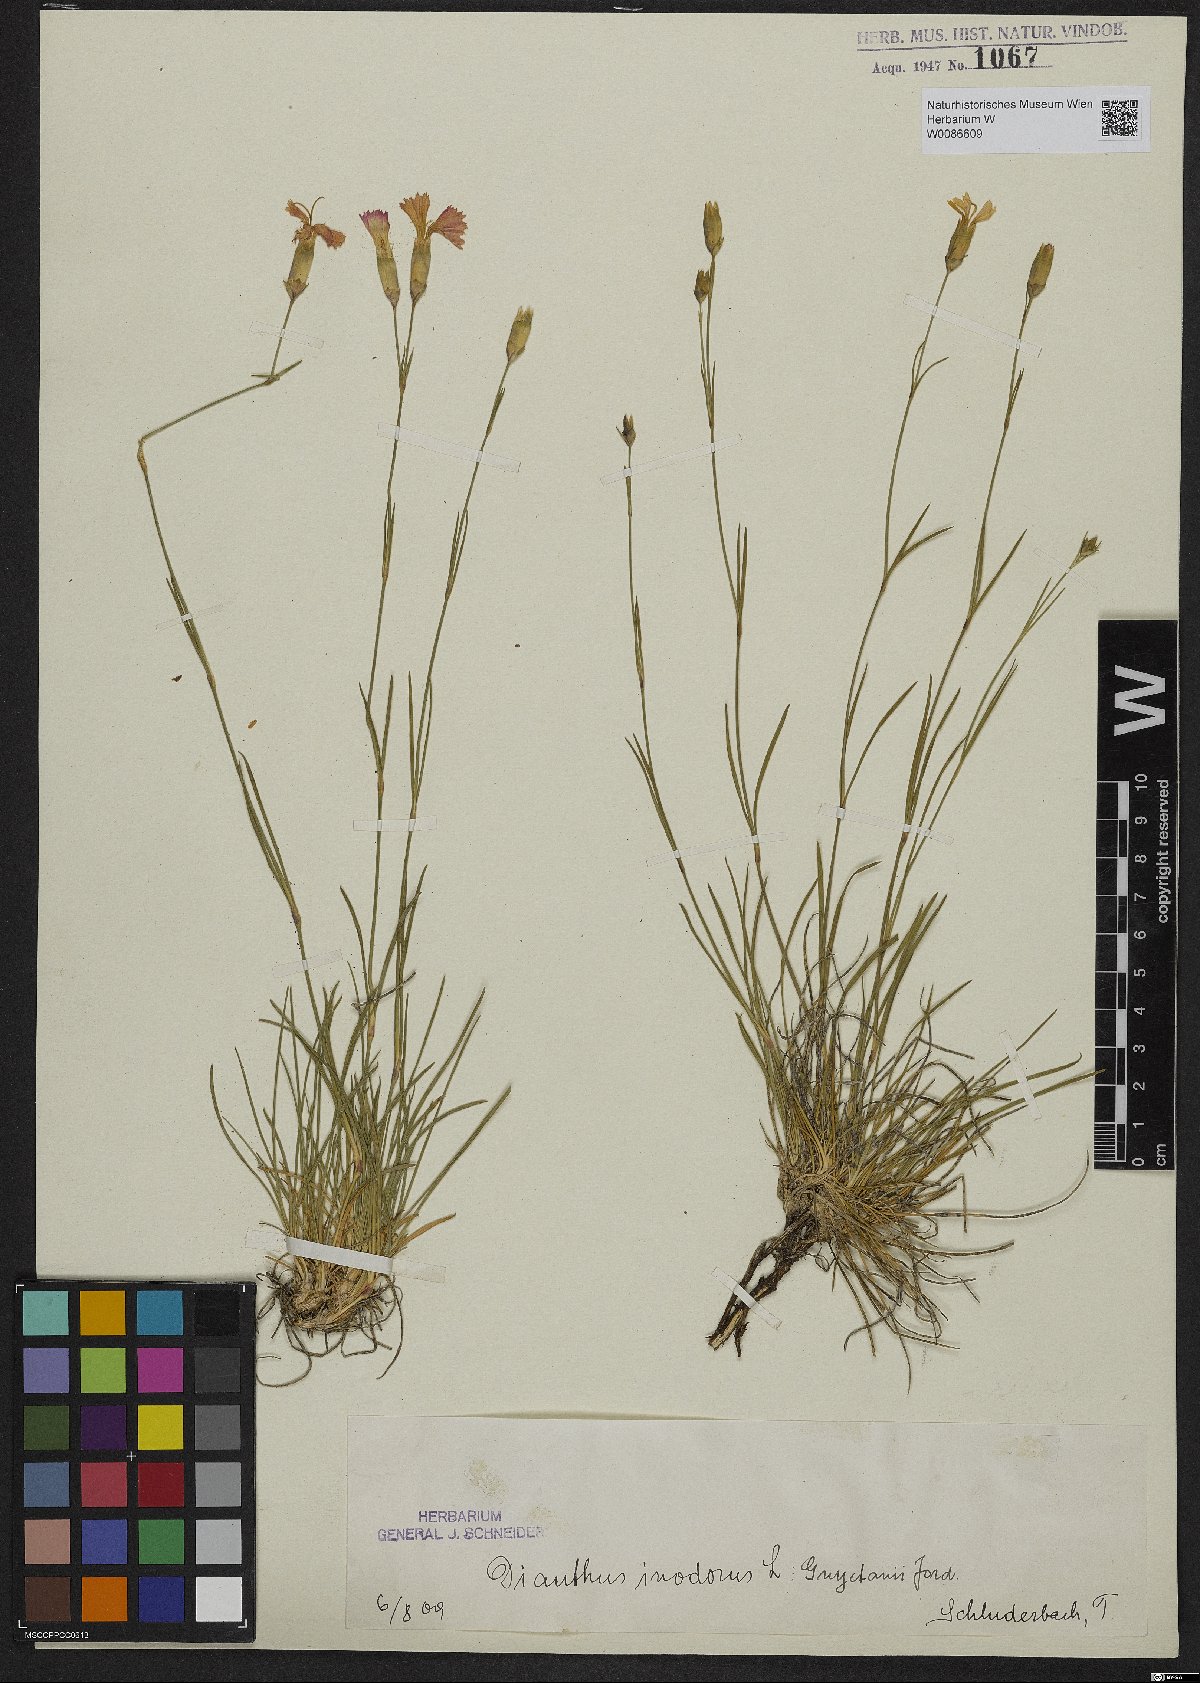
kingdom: Plantae
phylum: Tracheophyta
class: Magnoliopsida
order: Caryophyllales
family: Caryophyllaceae
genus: Dianthus
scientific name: Dianthus sylvestris
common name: Wood pink
